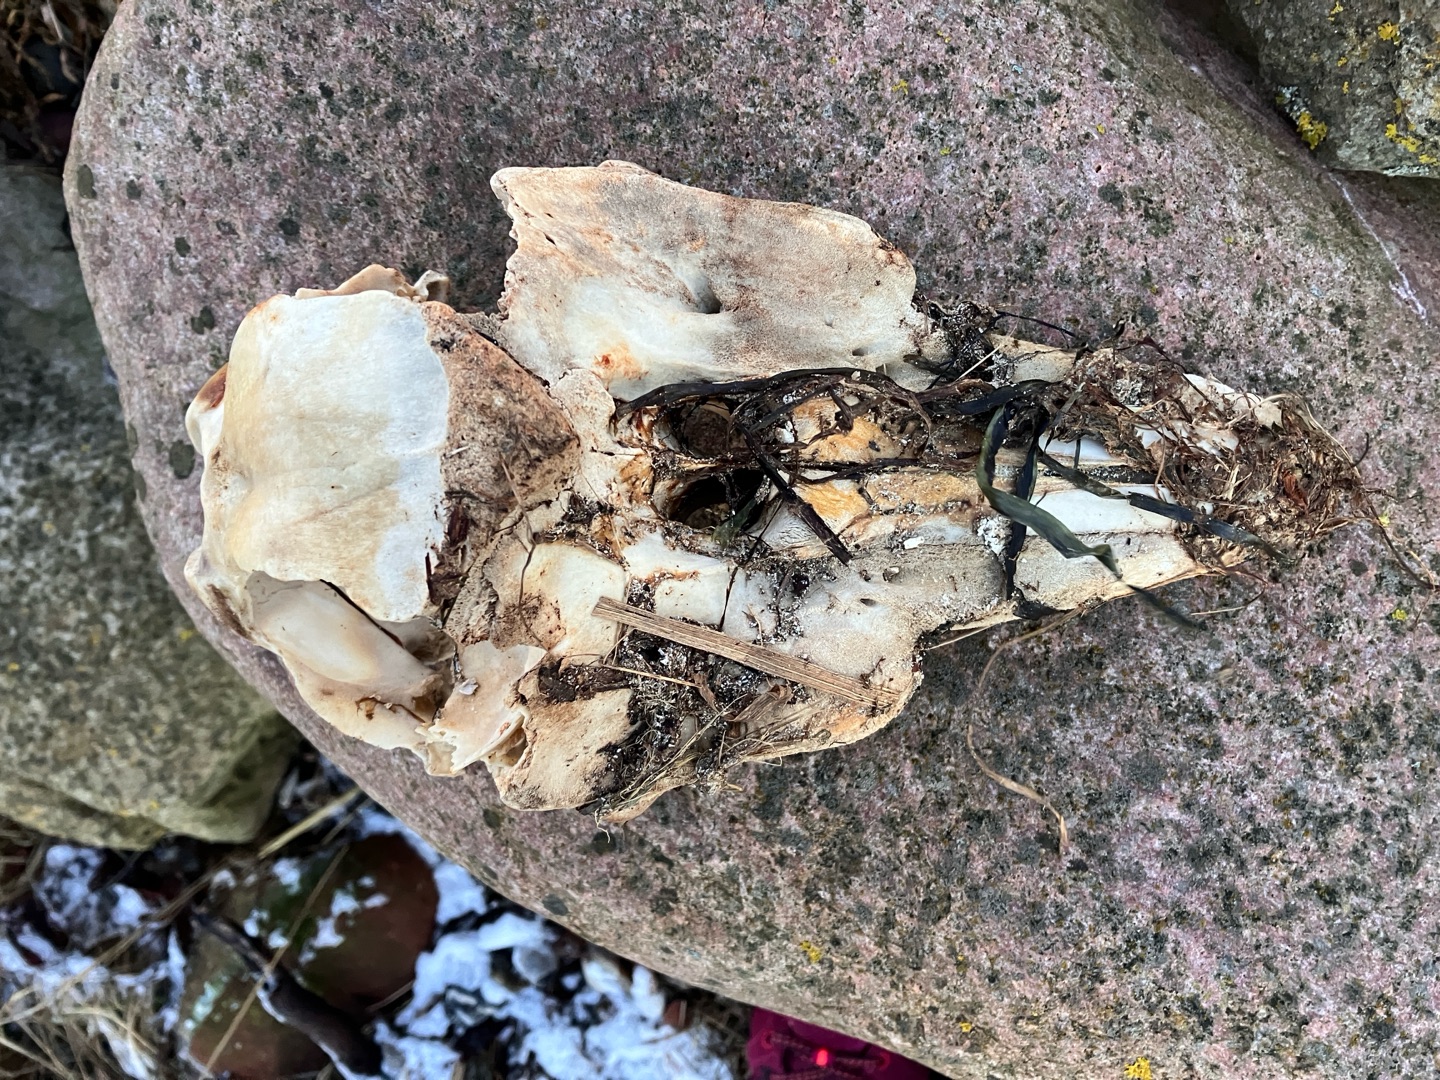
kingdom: Animalia
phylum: Chordata
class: Mammalia
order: Cetacea
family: Phocoenidae
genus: Phocoena
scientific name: Phocoena phocoena
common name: Marsvin
